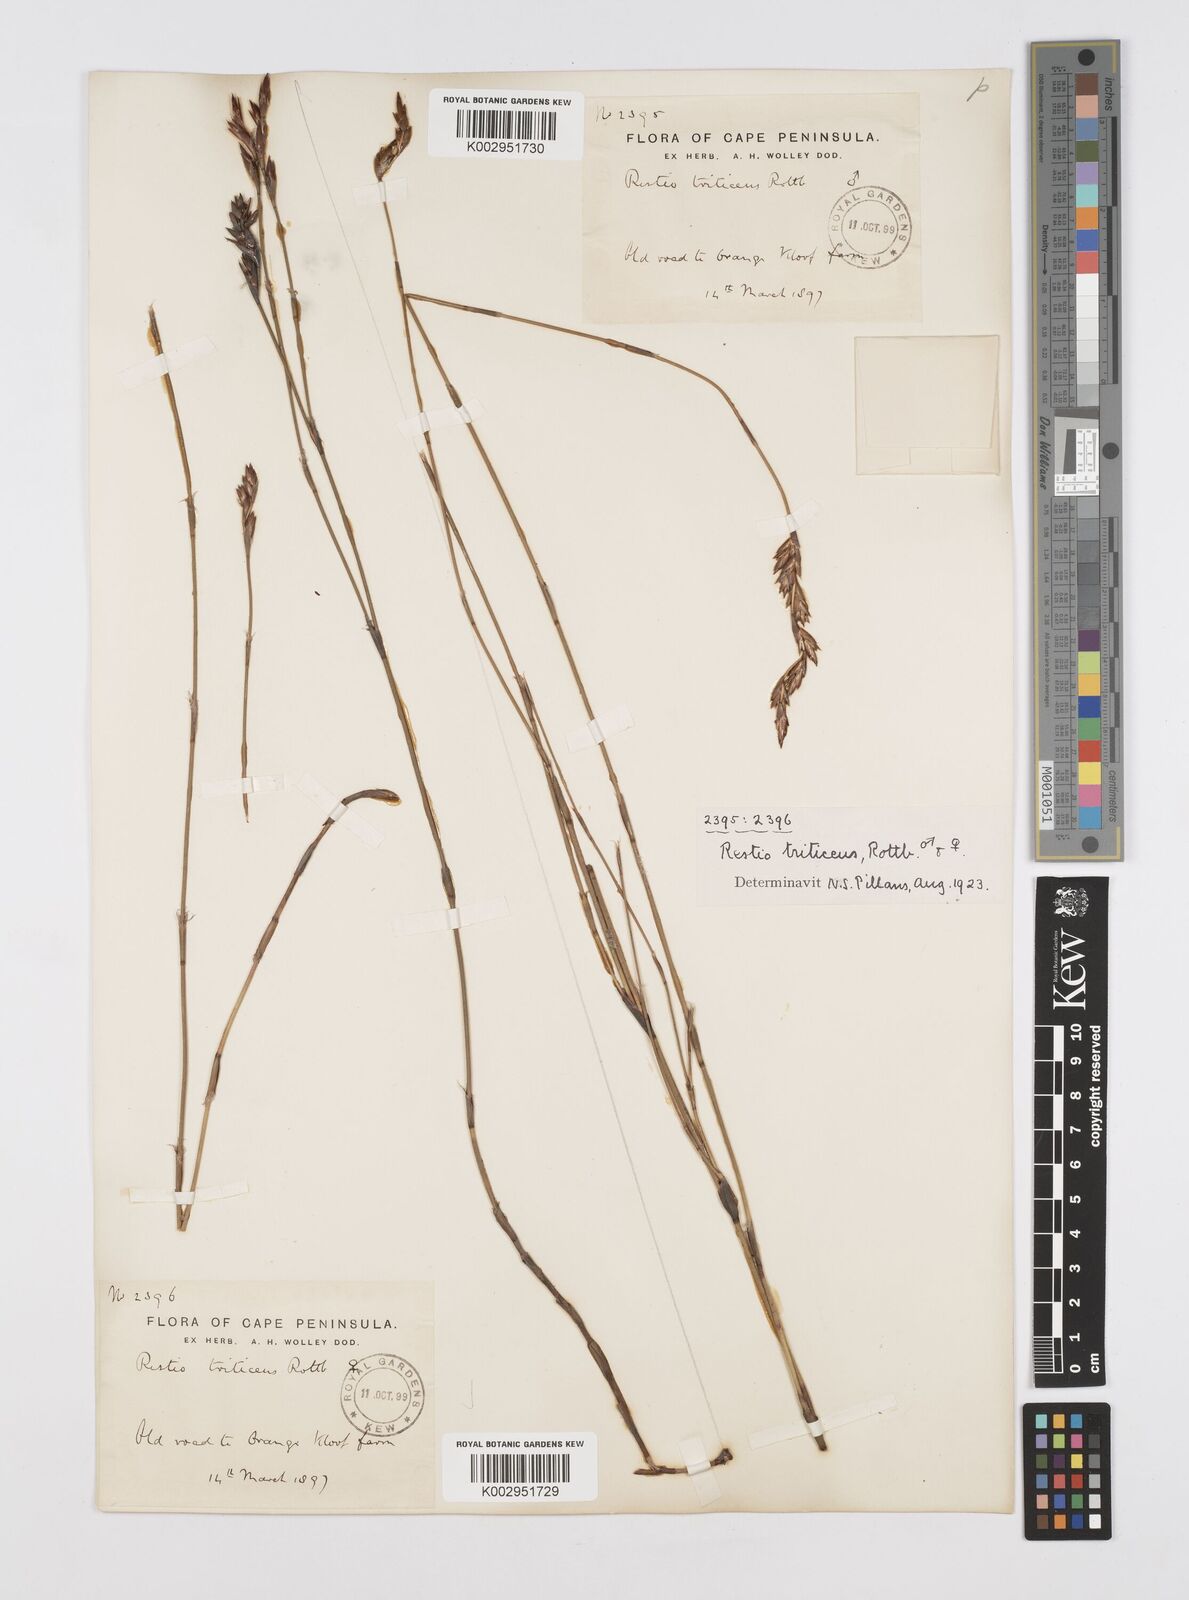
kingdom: Plantae
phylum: Tracheophyta
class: Liliopsida
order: Poales
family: Restionaceae
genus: Restio
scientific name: Restio triticeus
